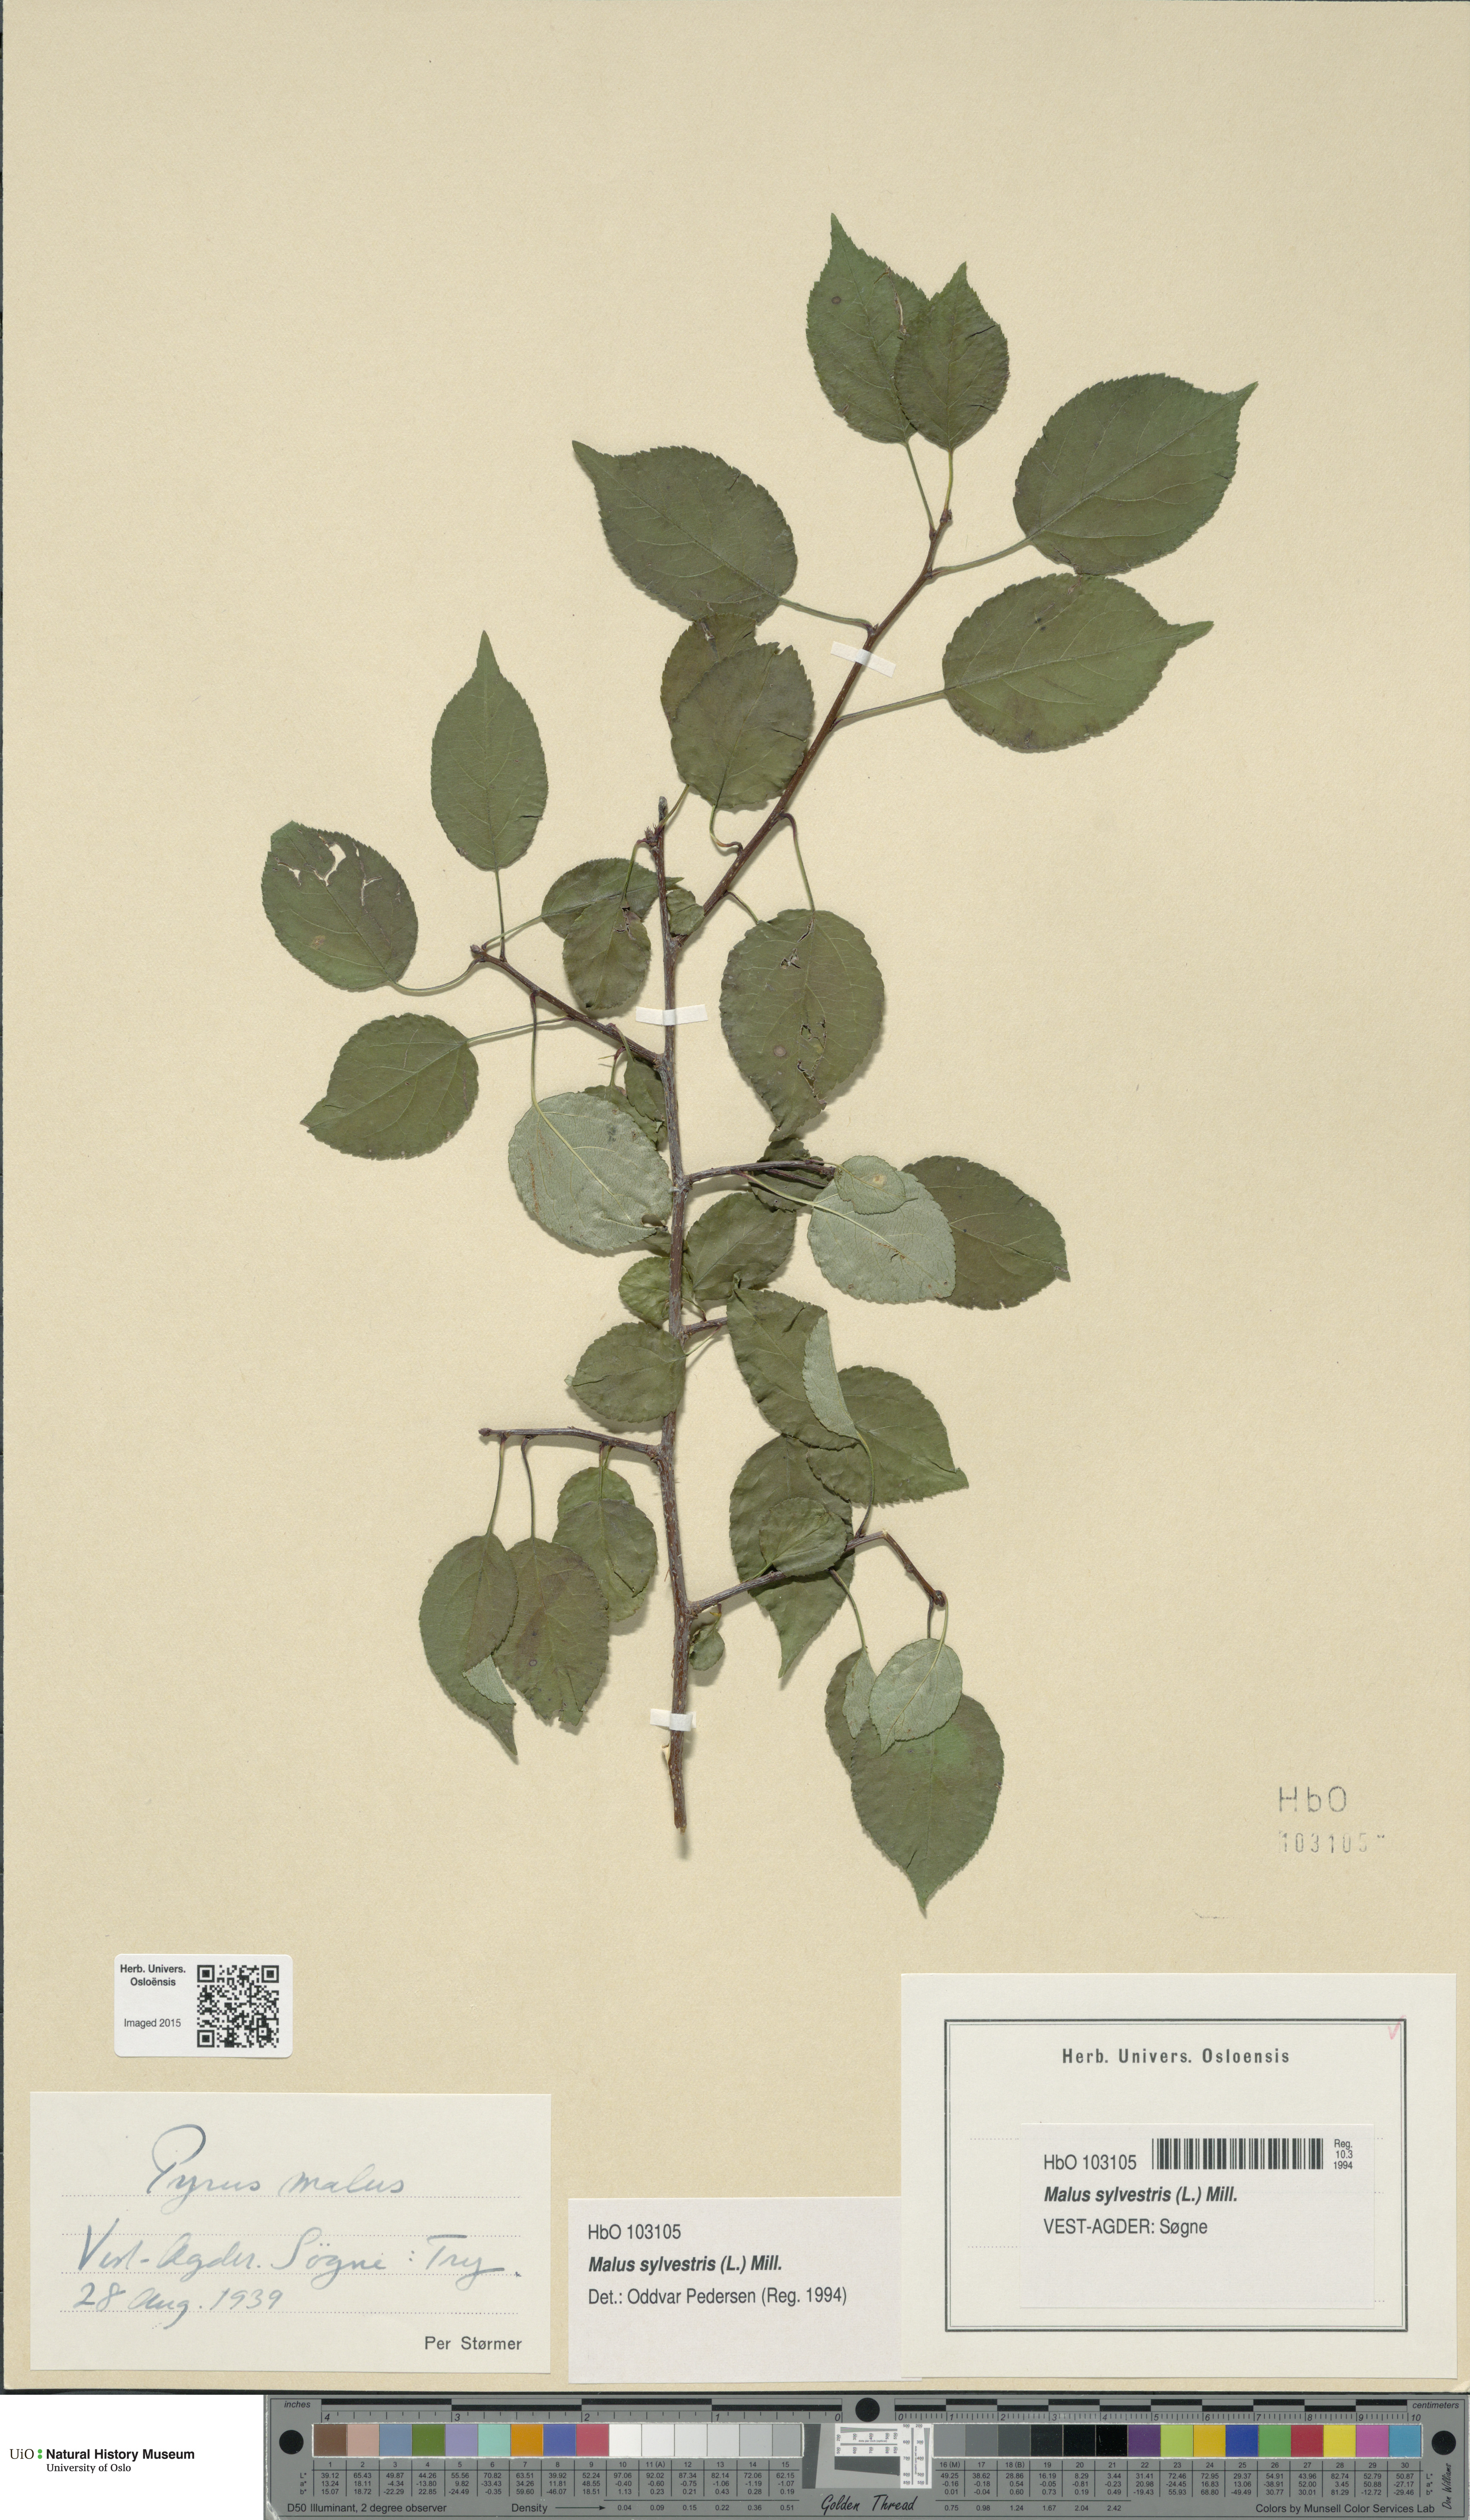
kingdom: Plantae
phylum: Tracheophyta
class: Magnoliopsida
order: Rosales
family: Rosaceae
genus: Malus
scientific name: Malus sylvestris
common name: Crab apple
